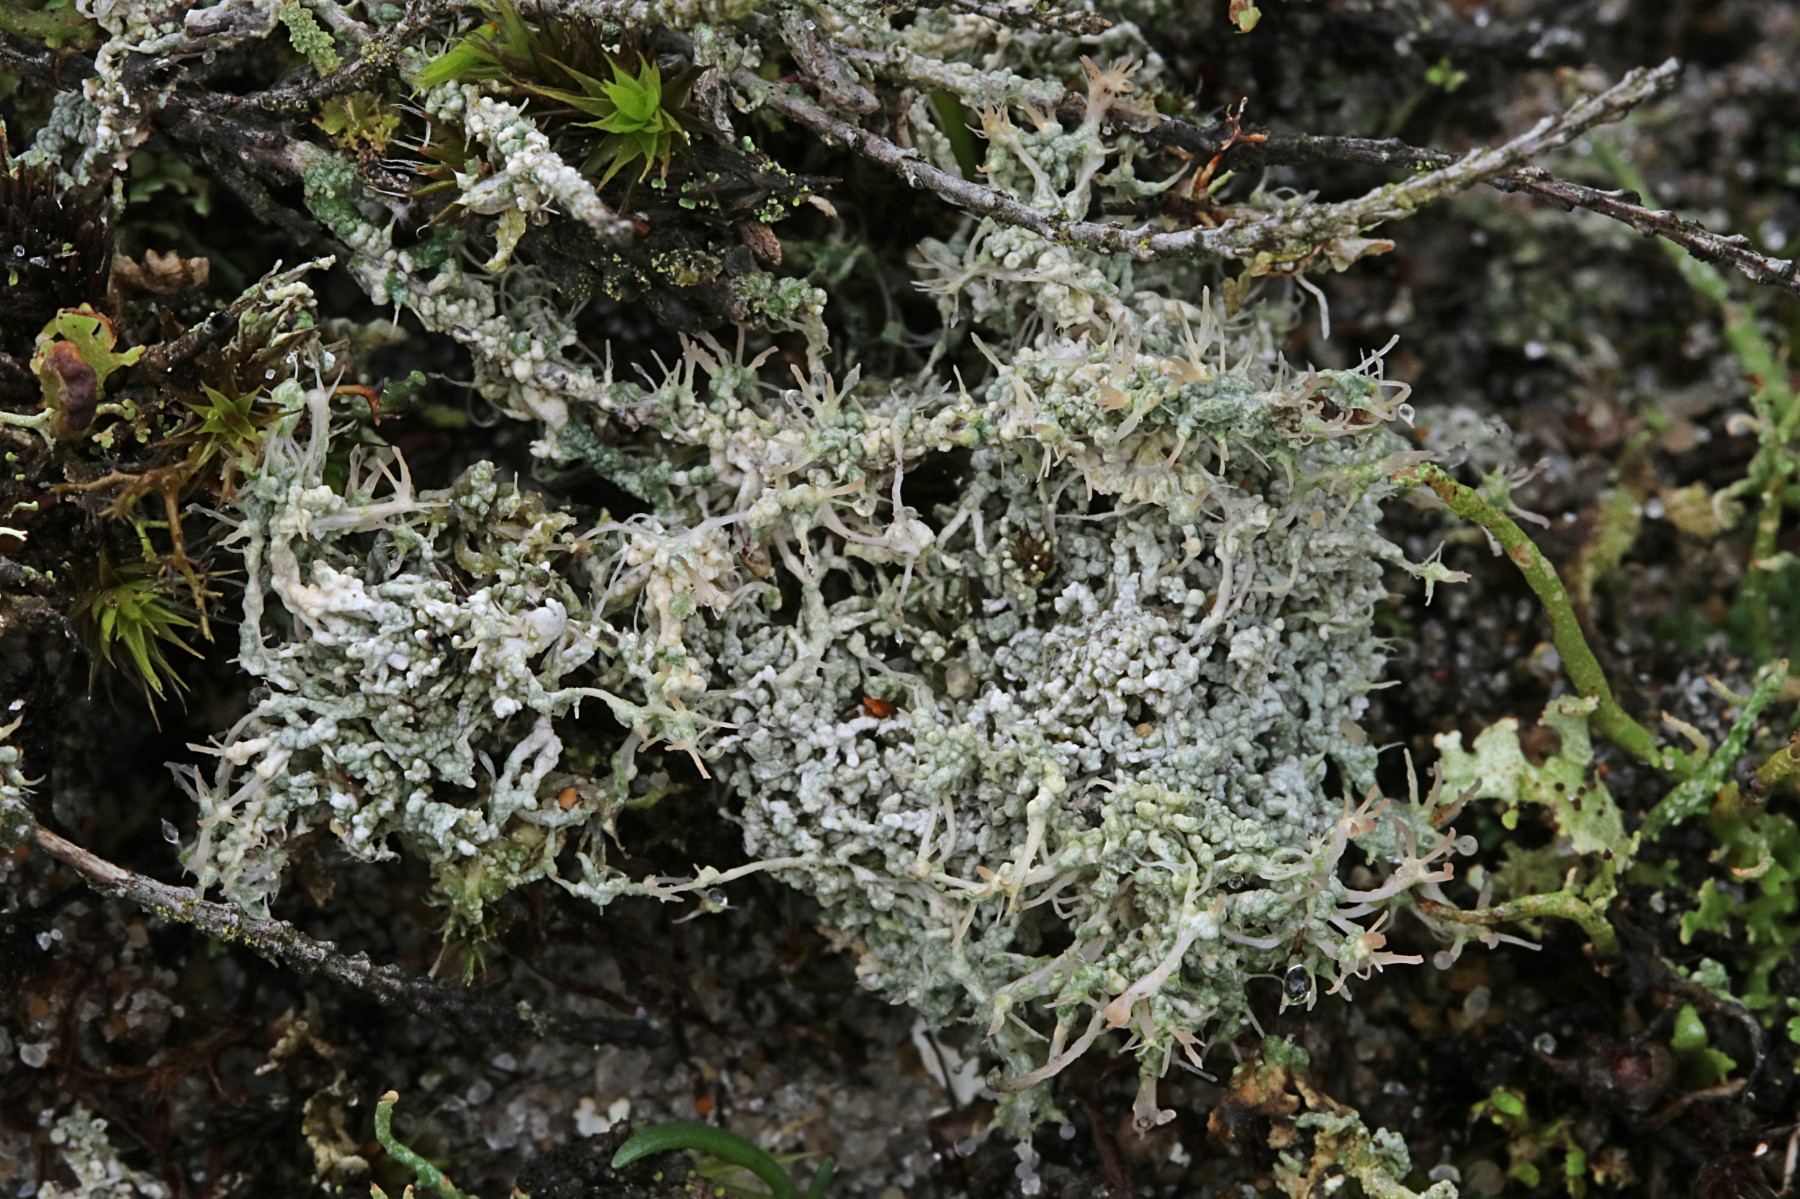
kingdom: Fungi
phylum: Ascomycota
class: Lecanoromycetes
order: Pertusariales
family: Ochrolechiaceae
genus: Ochrolechia
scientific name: Ochrolechia frigida
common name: fjeld-blegskivelav
